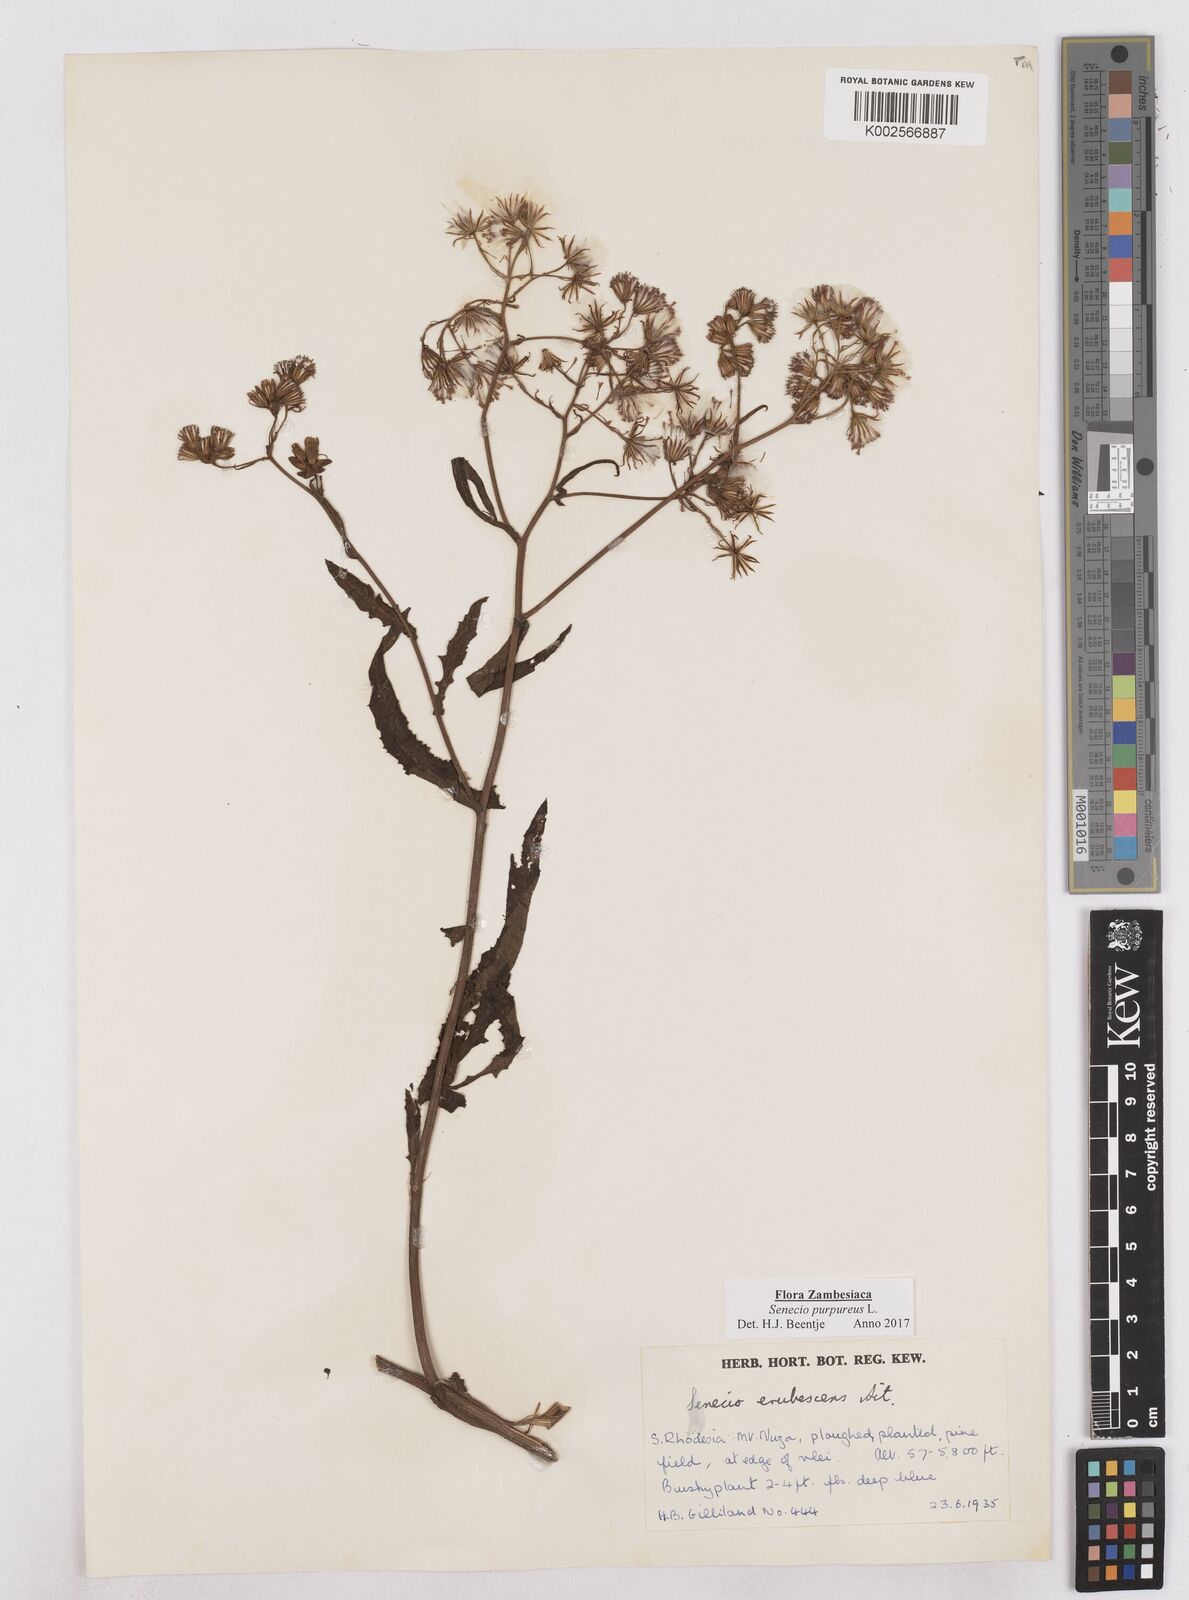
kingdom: Plantae
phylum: Tracheophyta
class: Magnoliopsida
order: Asterales
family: Asteraceae
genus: Senecio
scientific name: Senecio purpureus
